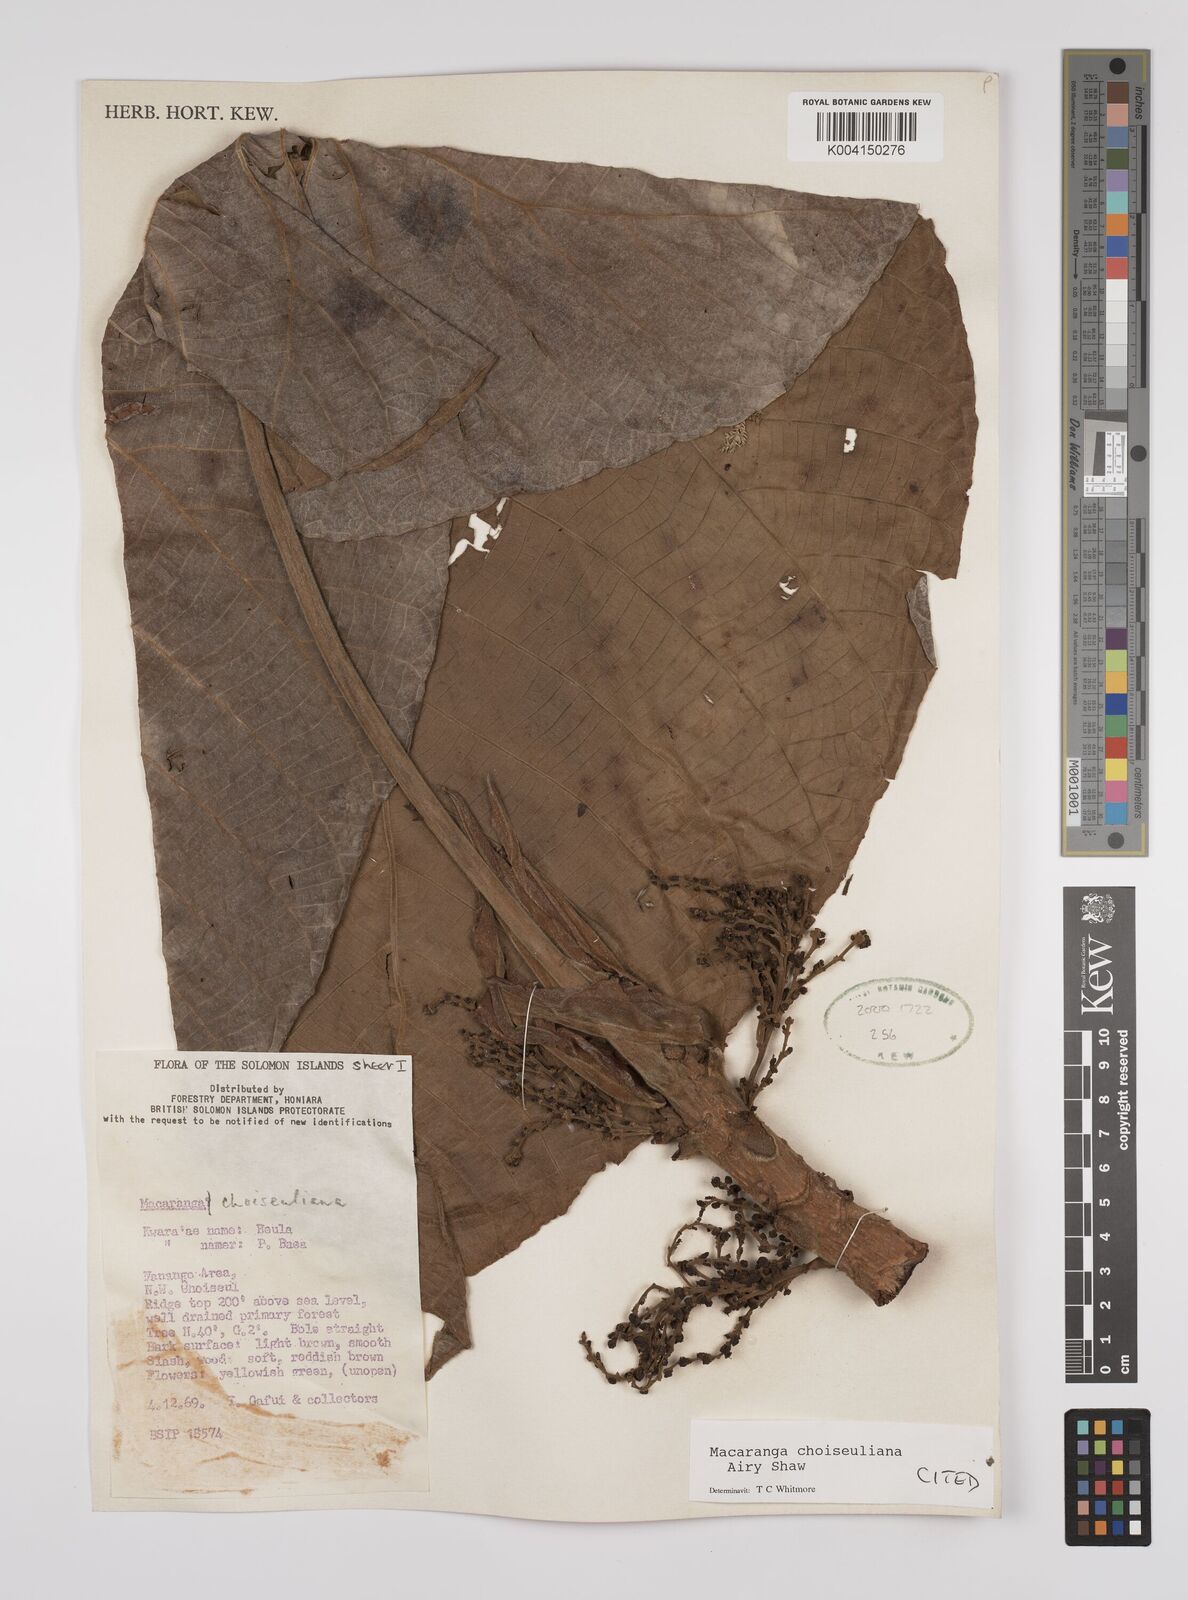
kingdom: Plantae
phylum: Tracheophyta
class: Magnoliopsida
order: Malpighiales
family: Euphorbiaceae
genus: Macaranga
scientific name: Macaranga choiseuliana
